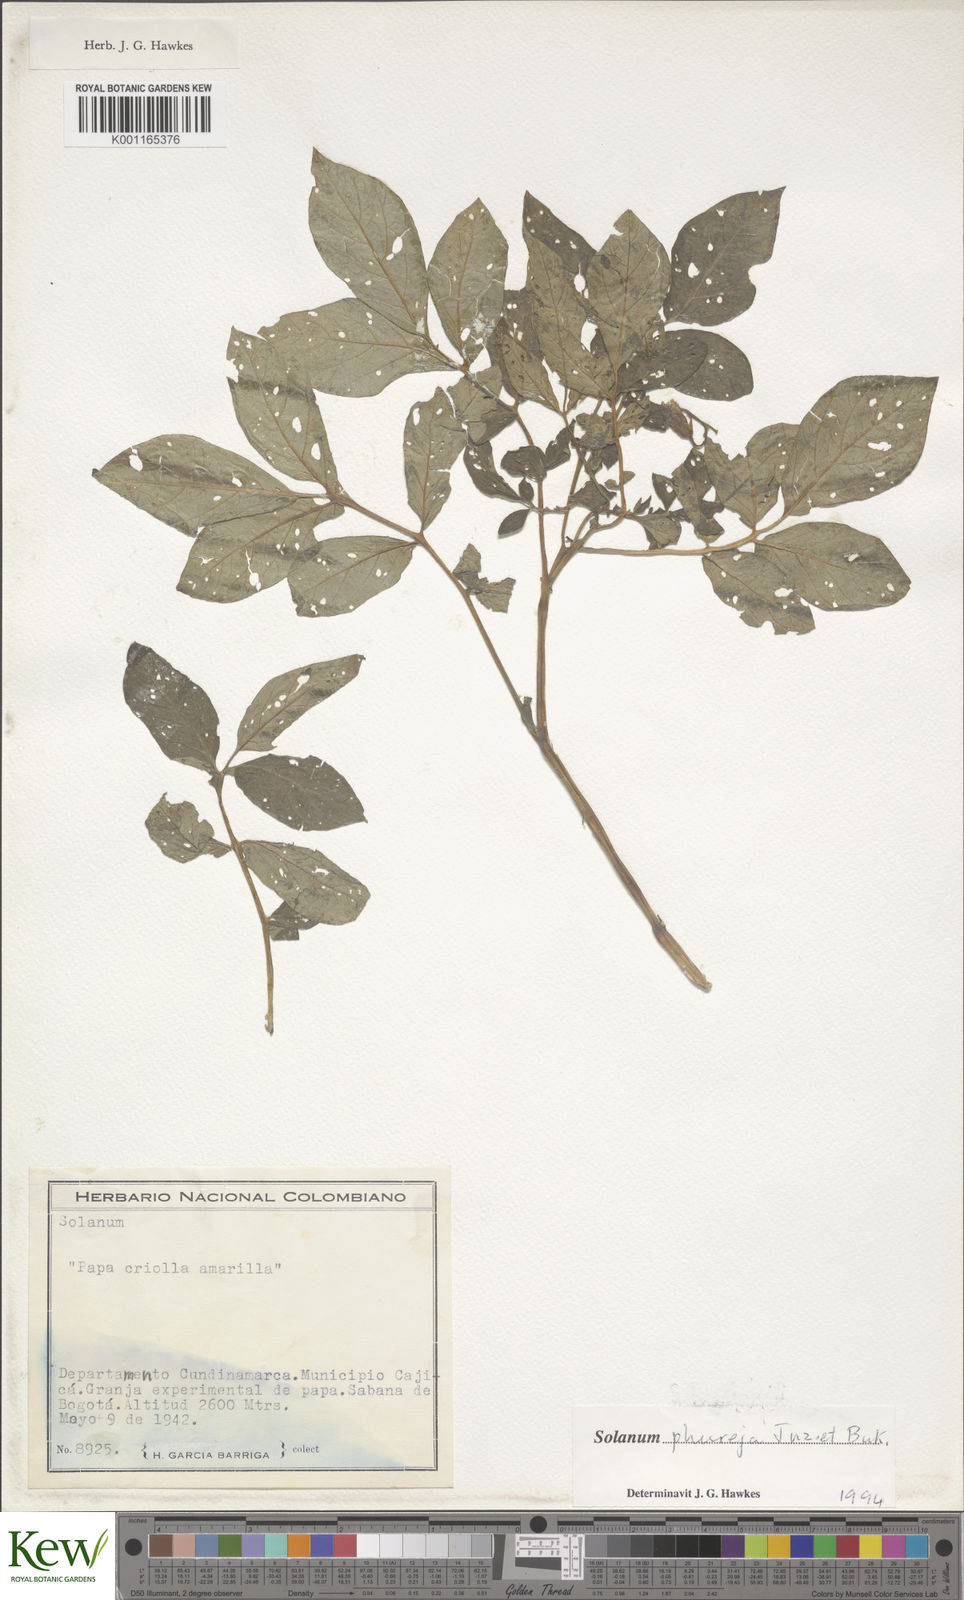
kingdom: Plantae
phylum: Tracheophyta
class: Magnoliopsida
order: Solanales
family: Solanaceae
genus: Solanum
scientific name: Solanum tuberosum
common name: Potato
